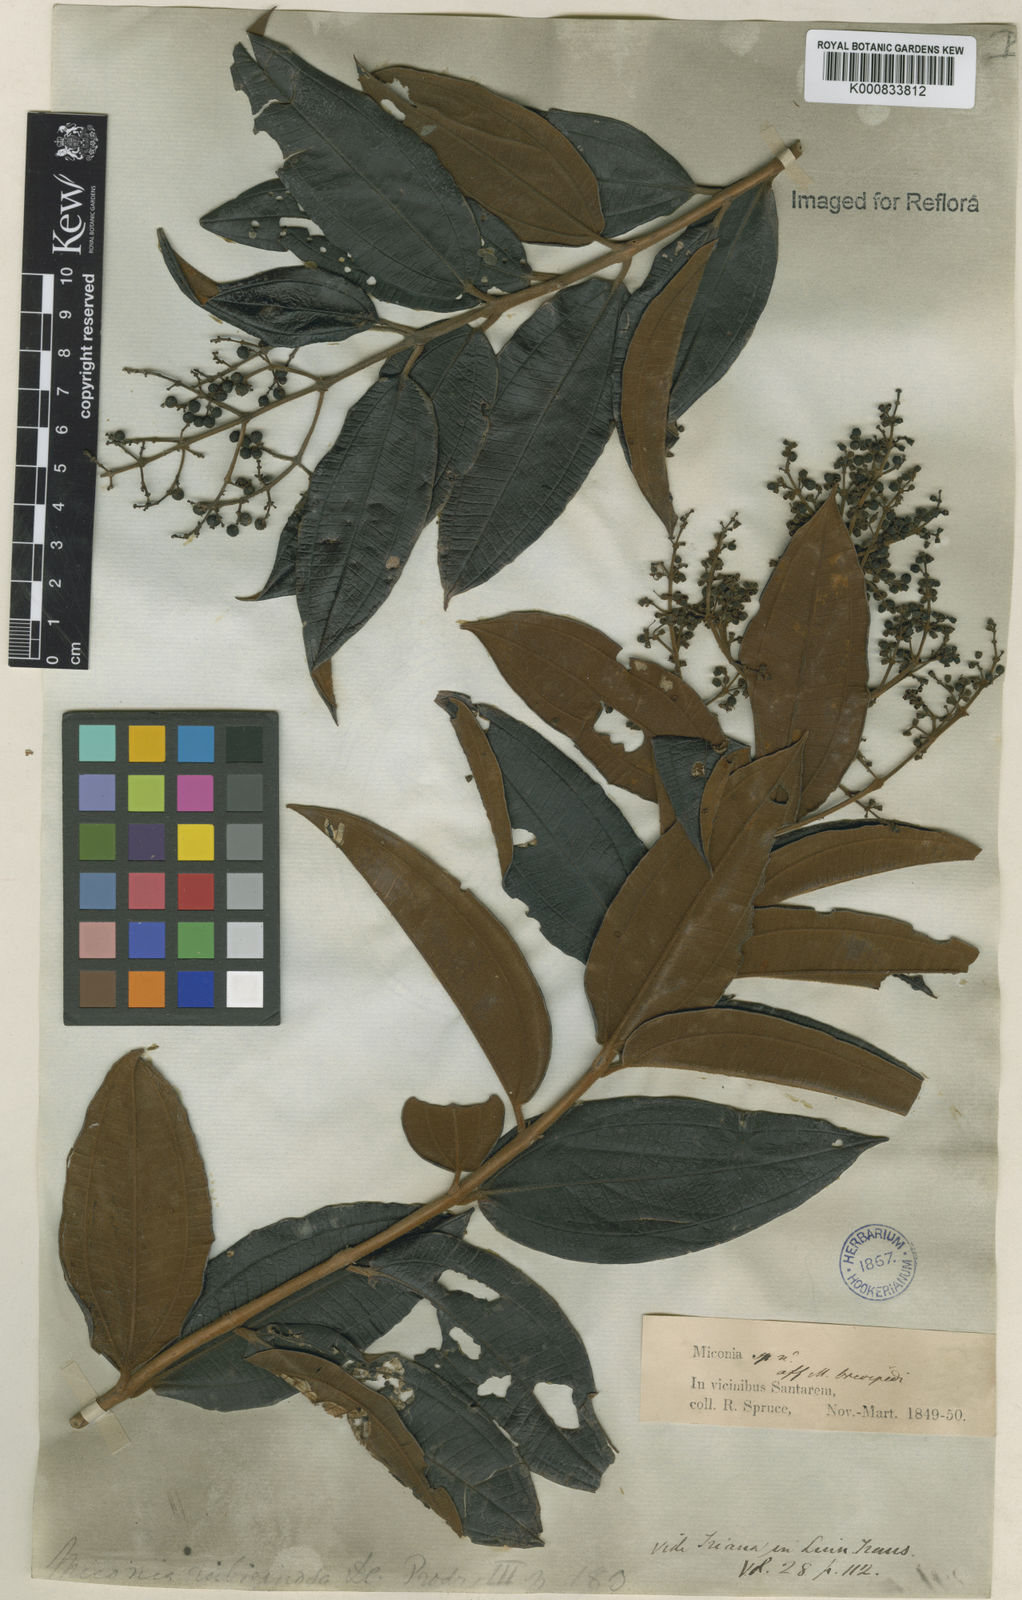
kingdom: Plantae
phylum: Tracheophyta
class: Magnoliopsida
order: Myrtales
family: Melastomataceae
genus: Miconia
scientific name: Miconia rubiginosa
